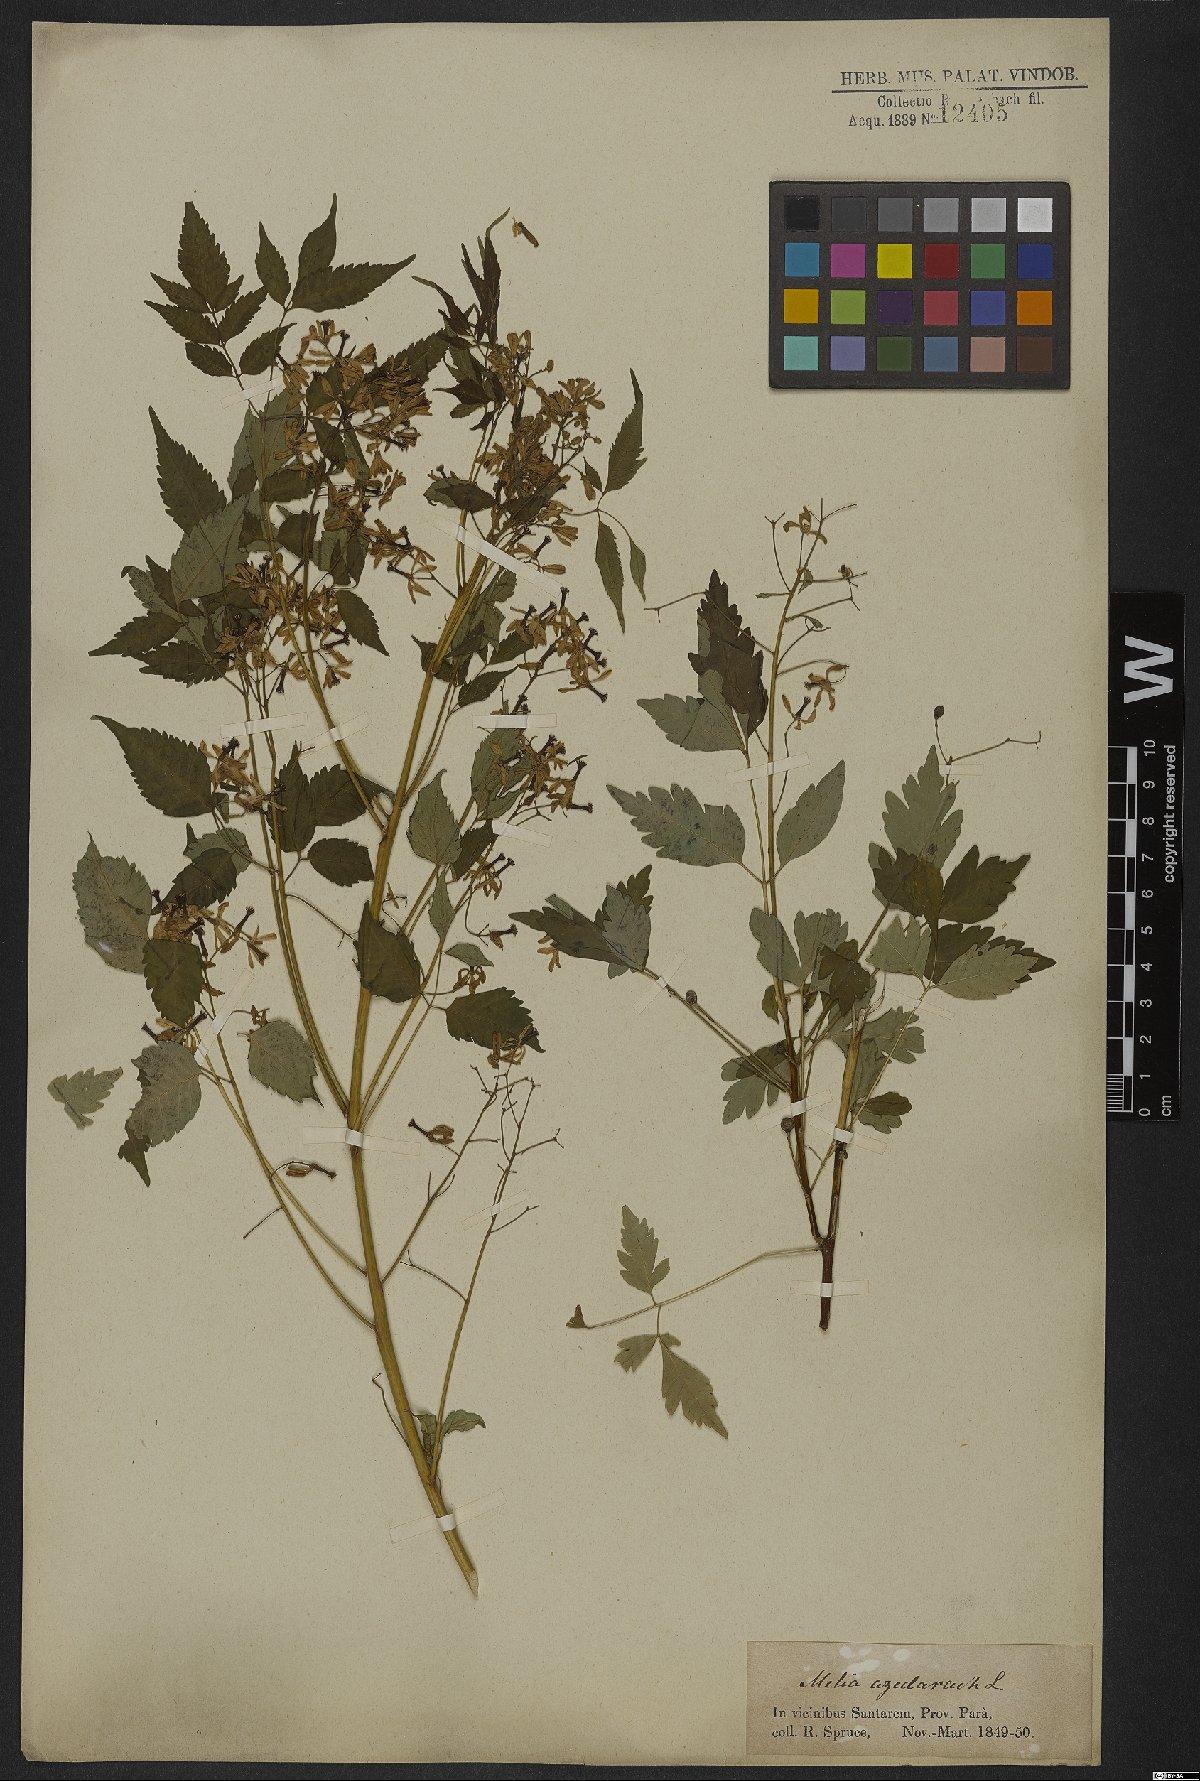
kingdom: Plantae
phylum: Tracheophyta
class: Magnoliopsida
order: Sapindales
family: Meliaceae
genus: Melia
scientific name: Melia azedarach
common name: Chinaberrytree
